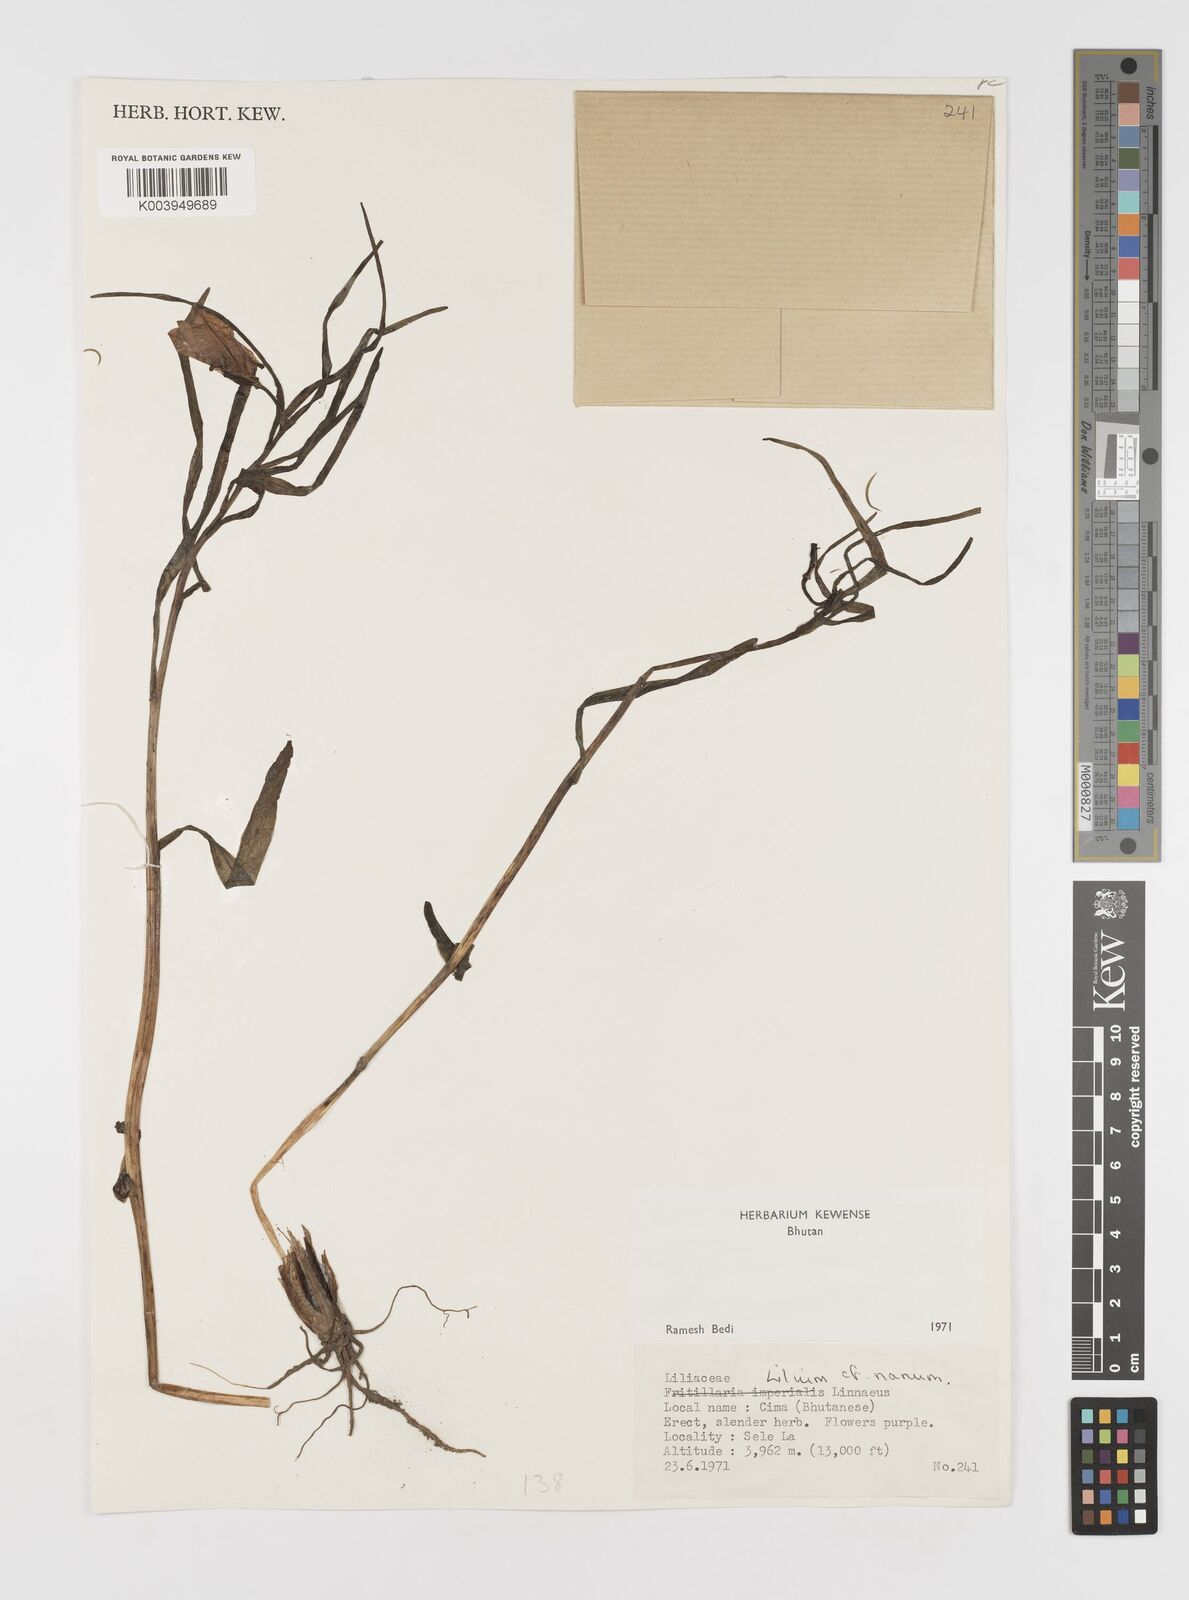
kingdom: Plantae
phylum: Tracheophyta
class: Liliopsida
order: Liliales
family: Liliaceae
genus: Lilium
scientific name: Lilium nanum
